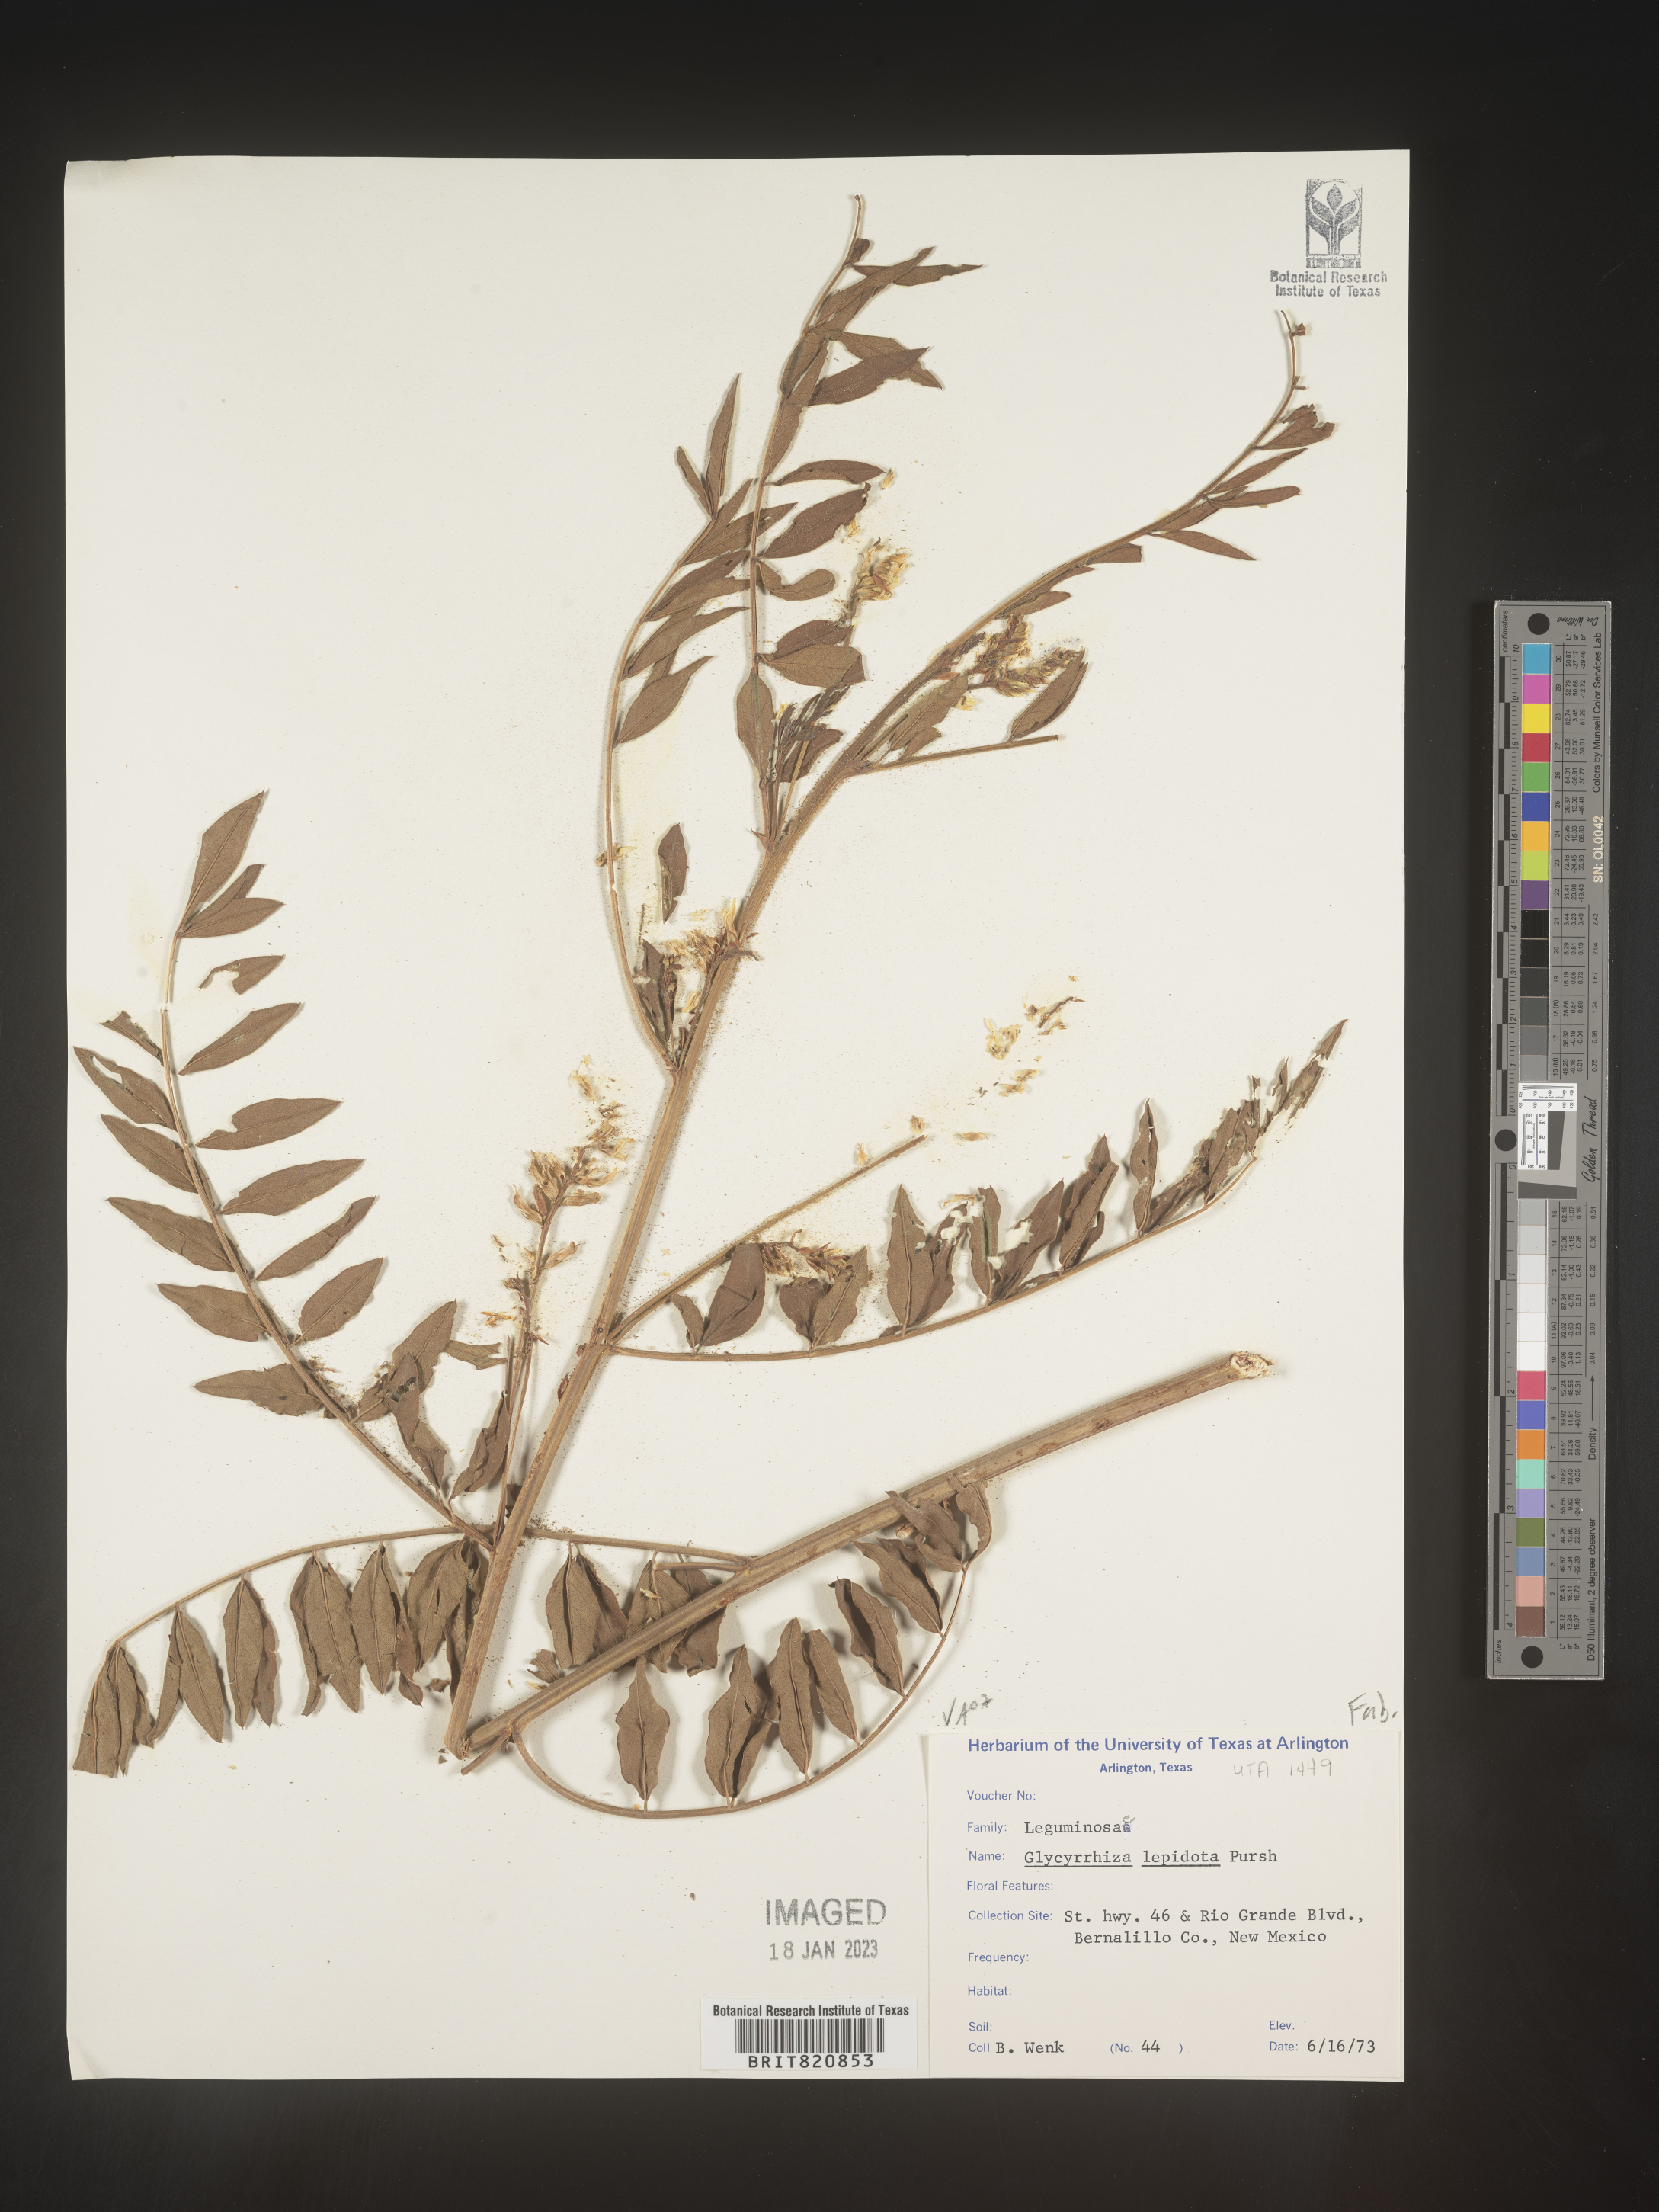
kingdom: Plantae
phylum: Tracheophyta
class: Magnoliopsida
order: Fabales
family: Fabaceae
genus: Glycyrrhiza
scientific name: Glycyrrhiza lepidota
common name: American liquorice
